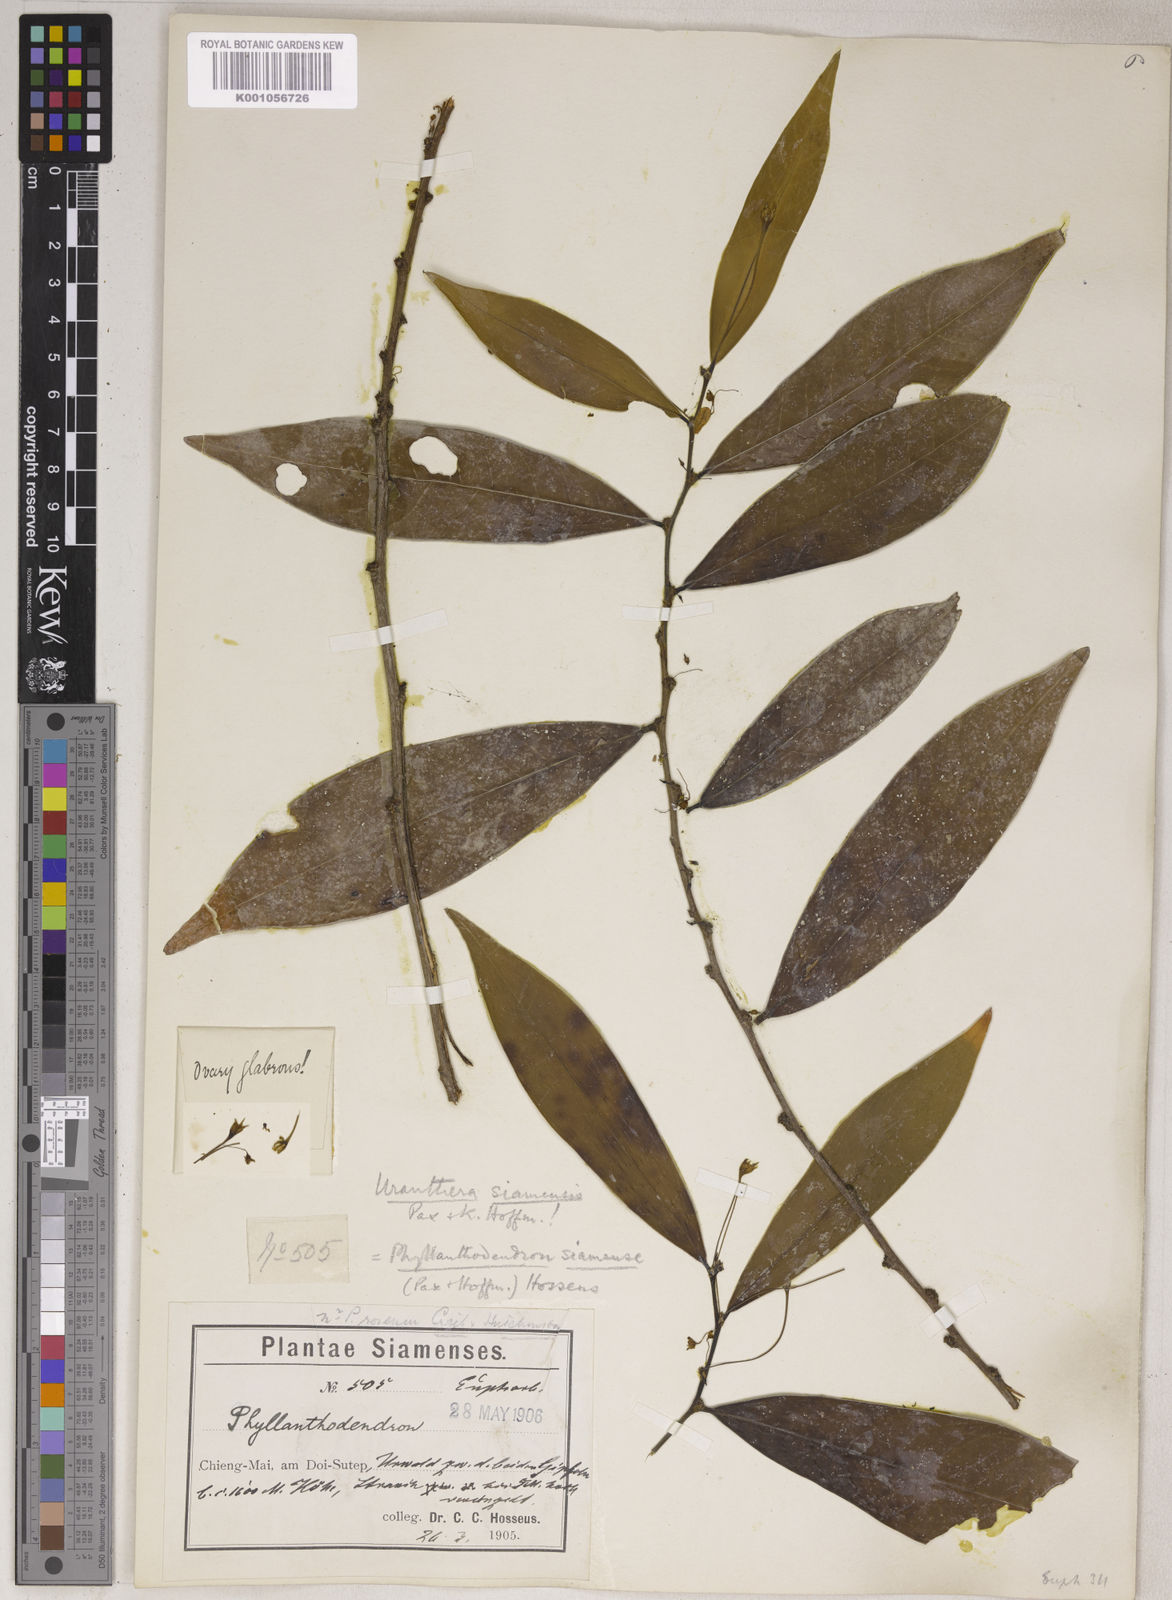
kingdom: Plantae
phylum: Tracheophyta
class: Magnoliopsida
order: Malpighiales
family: Phyllanthaceae
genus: Phyllanthus
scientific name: Phyllanthus roseus
